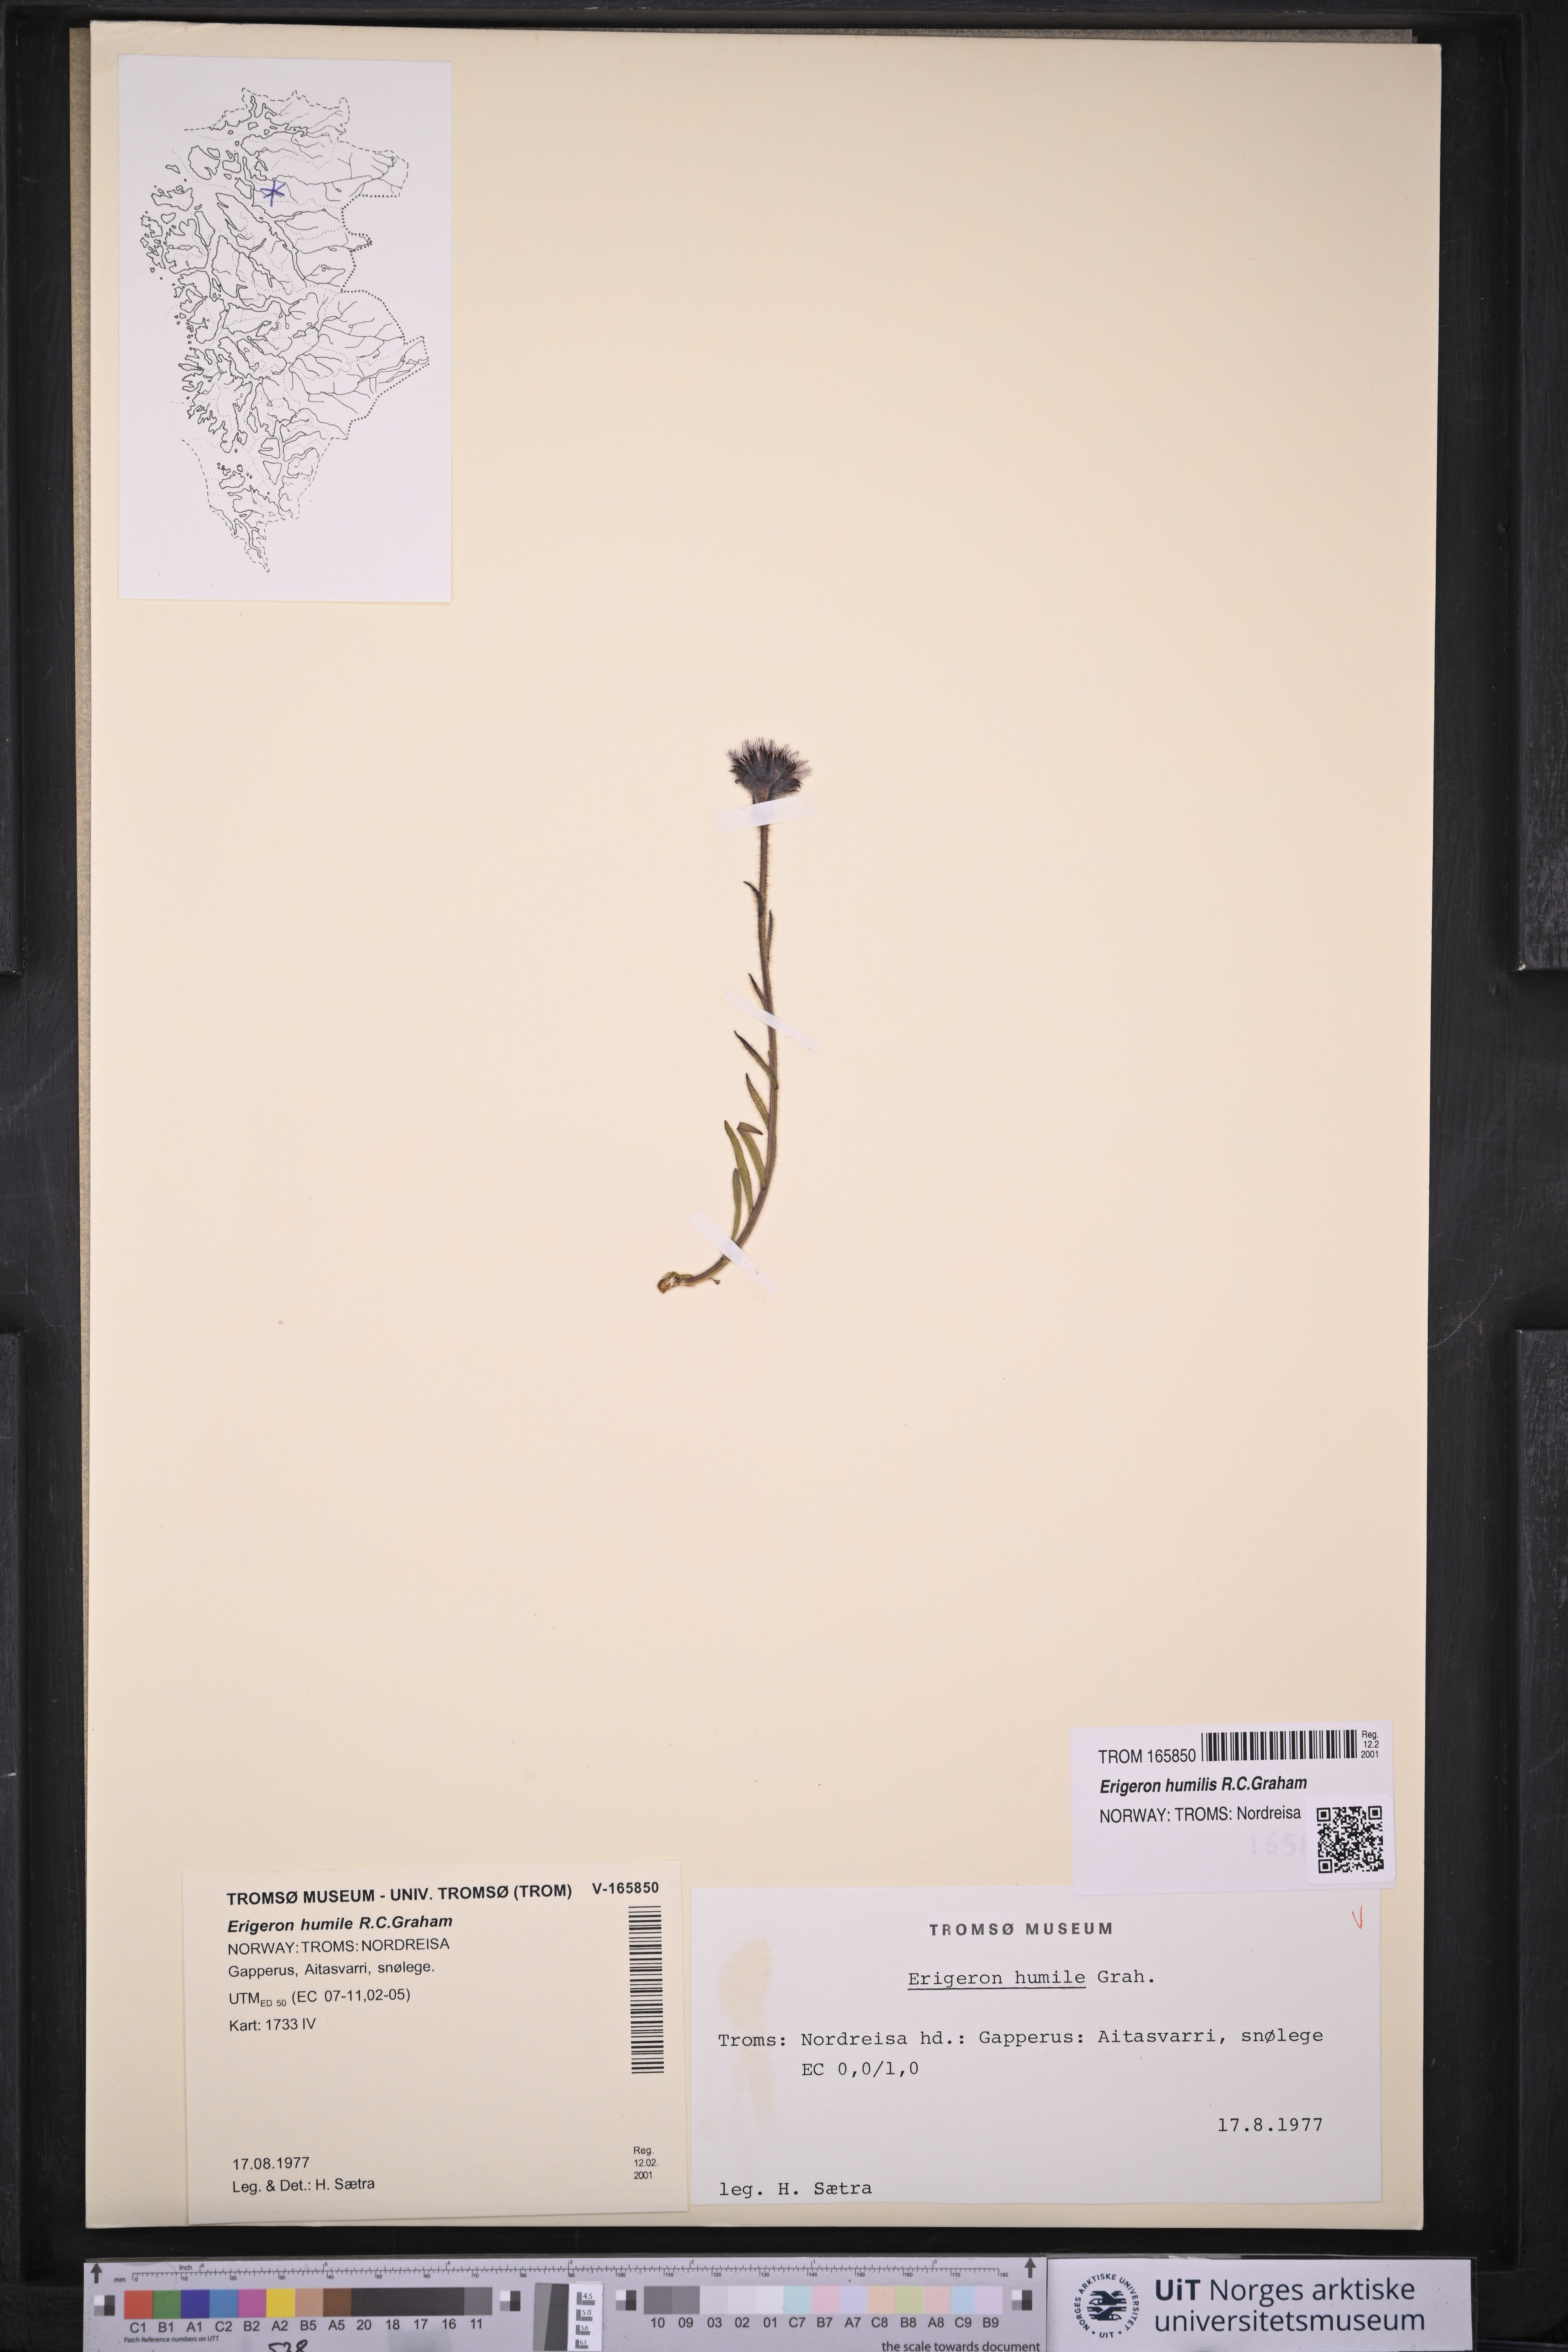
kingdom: Plantae
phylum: Tracheophyta
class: Magnoliopsida
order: Asterales
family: Asteraceae
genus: Erigeron
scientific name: Erigeron humilis
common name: Arctic-alpine fleabane
